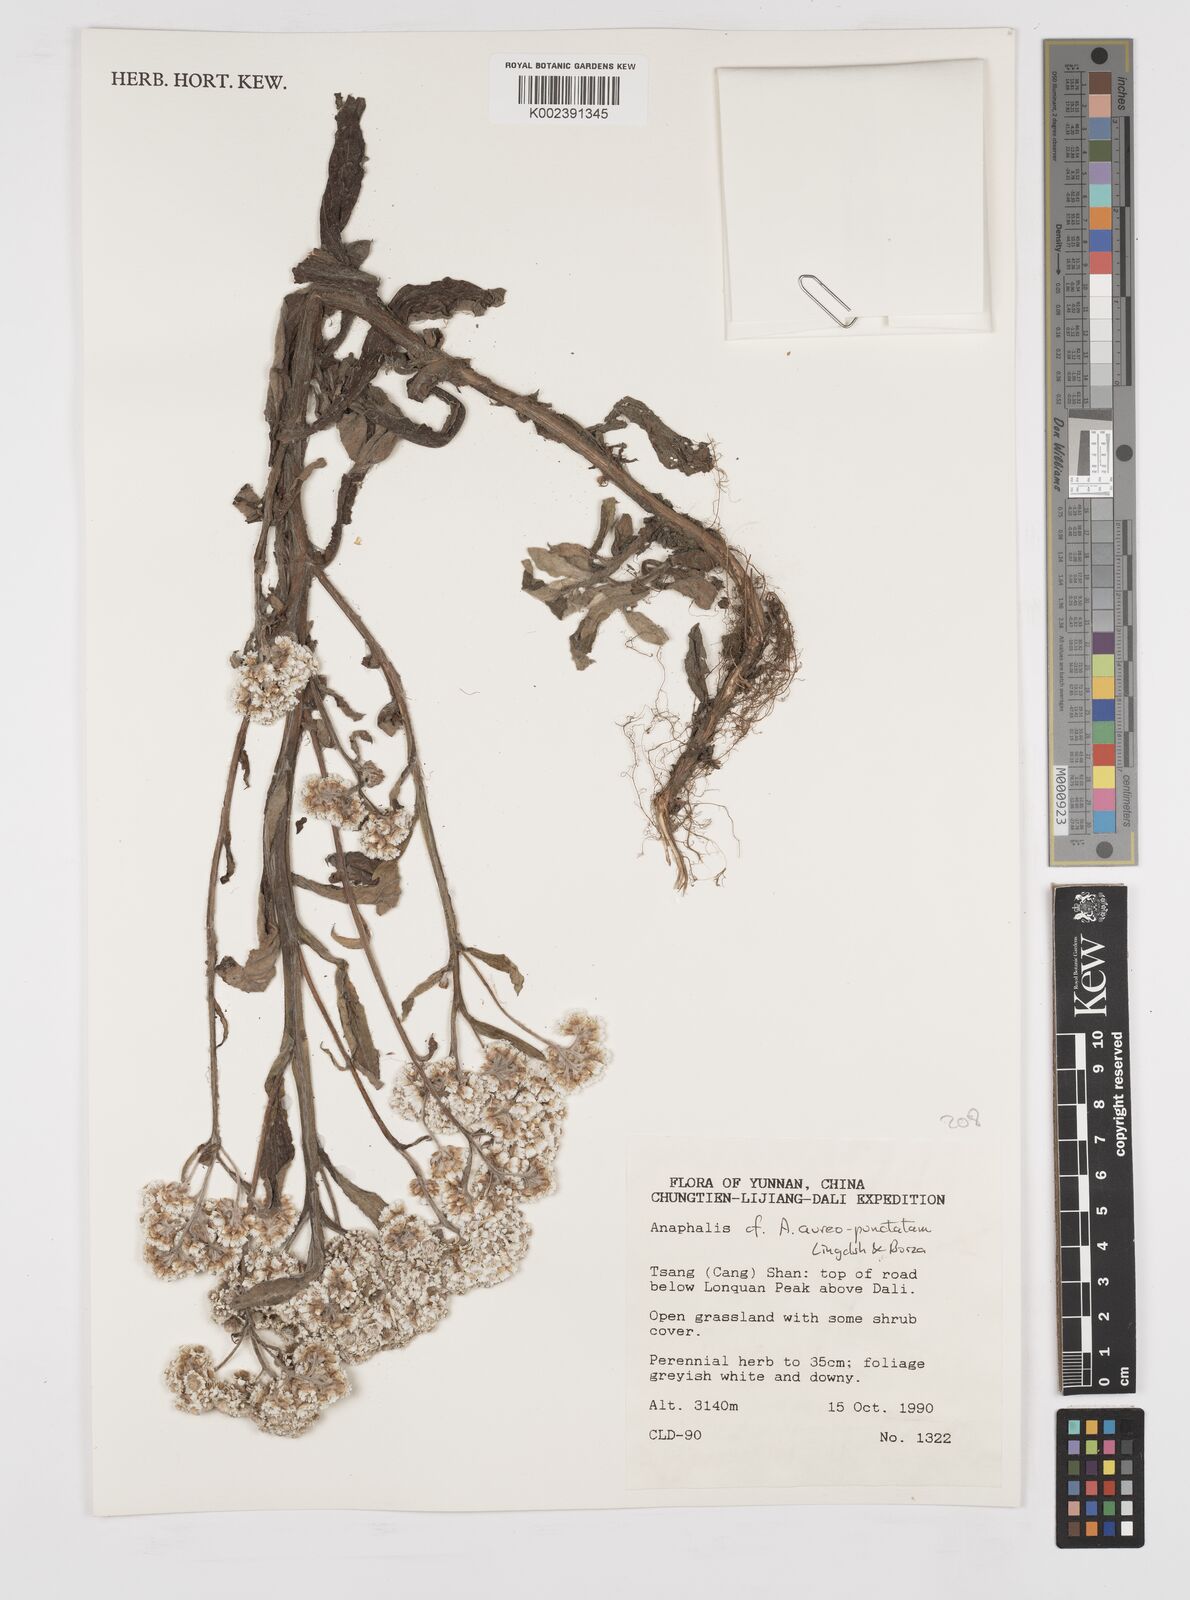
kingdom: Plantae
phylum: Tracheophyta
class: Magnoliopsida
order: Asterales
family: Asteraceae
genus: Anaphalis
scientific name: Anaphalis aureopunctata
